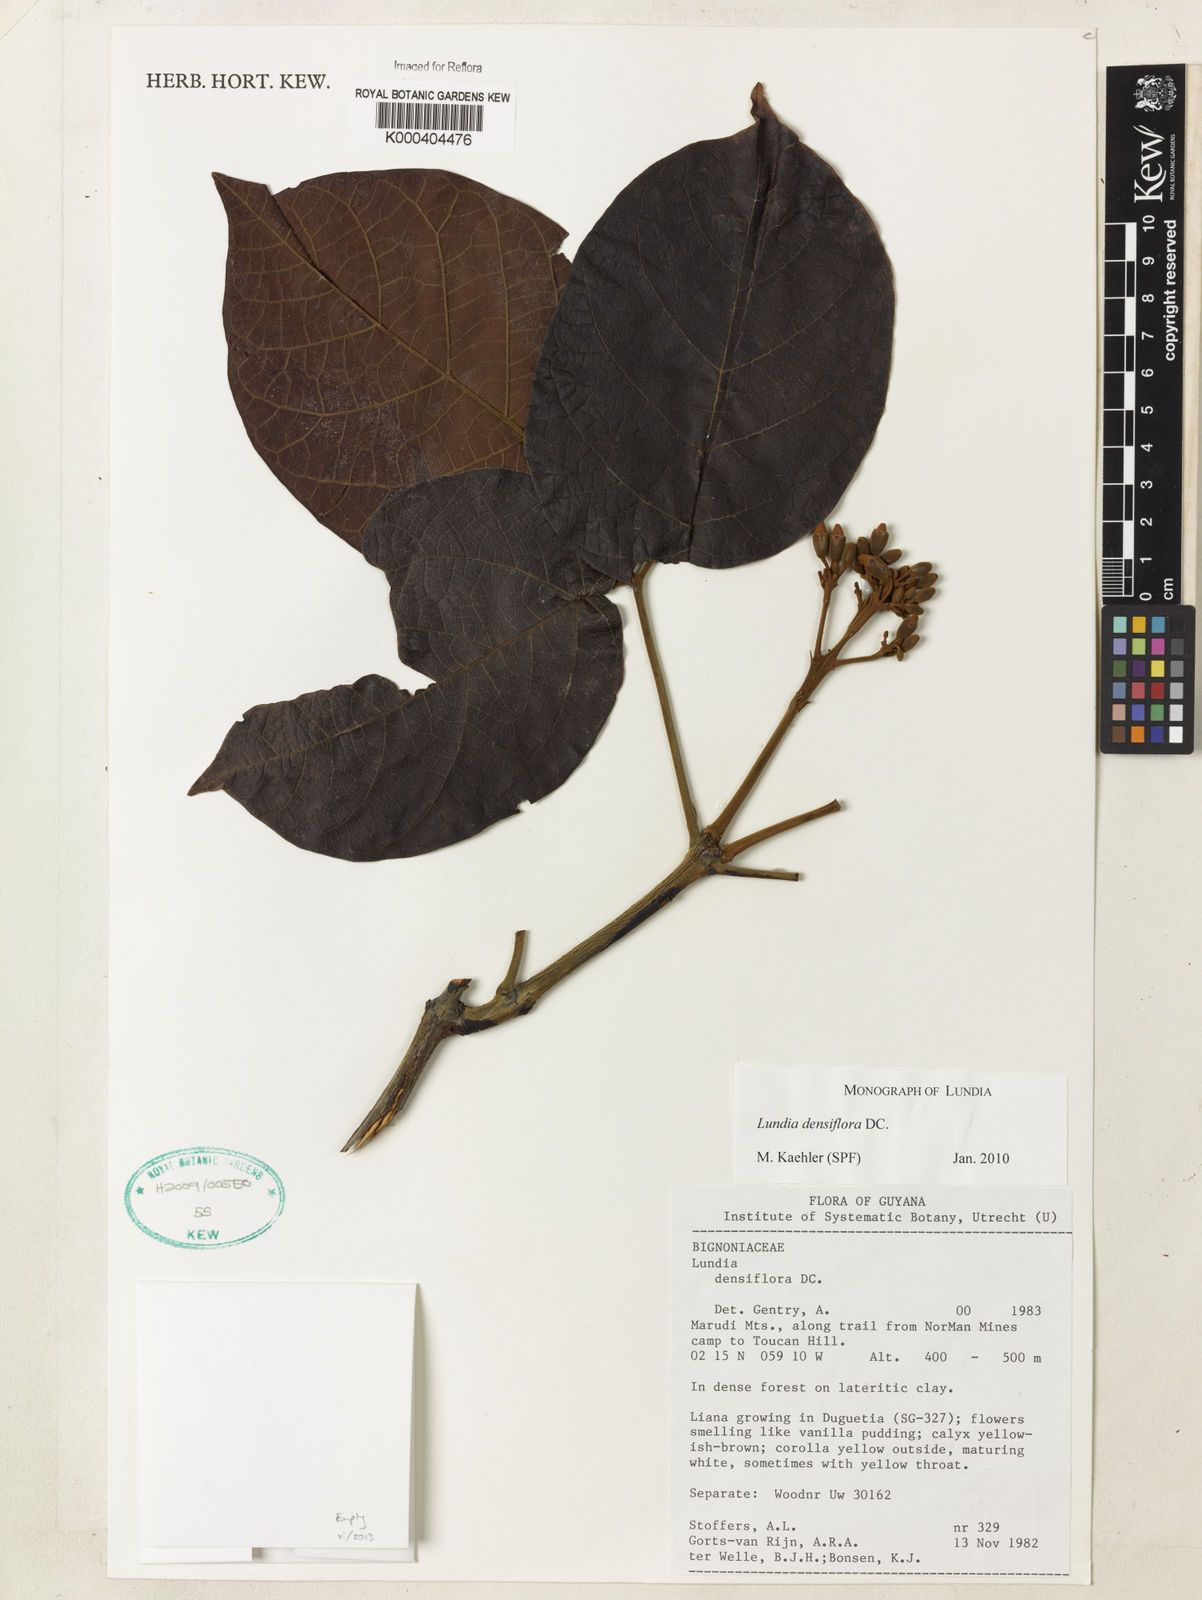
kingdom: Plantae
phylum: Tracheophyta
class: Magnoliopsida
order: Lamiales
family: Bignoniaceae
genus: Lundia
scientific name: Lundia densiflora
